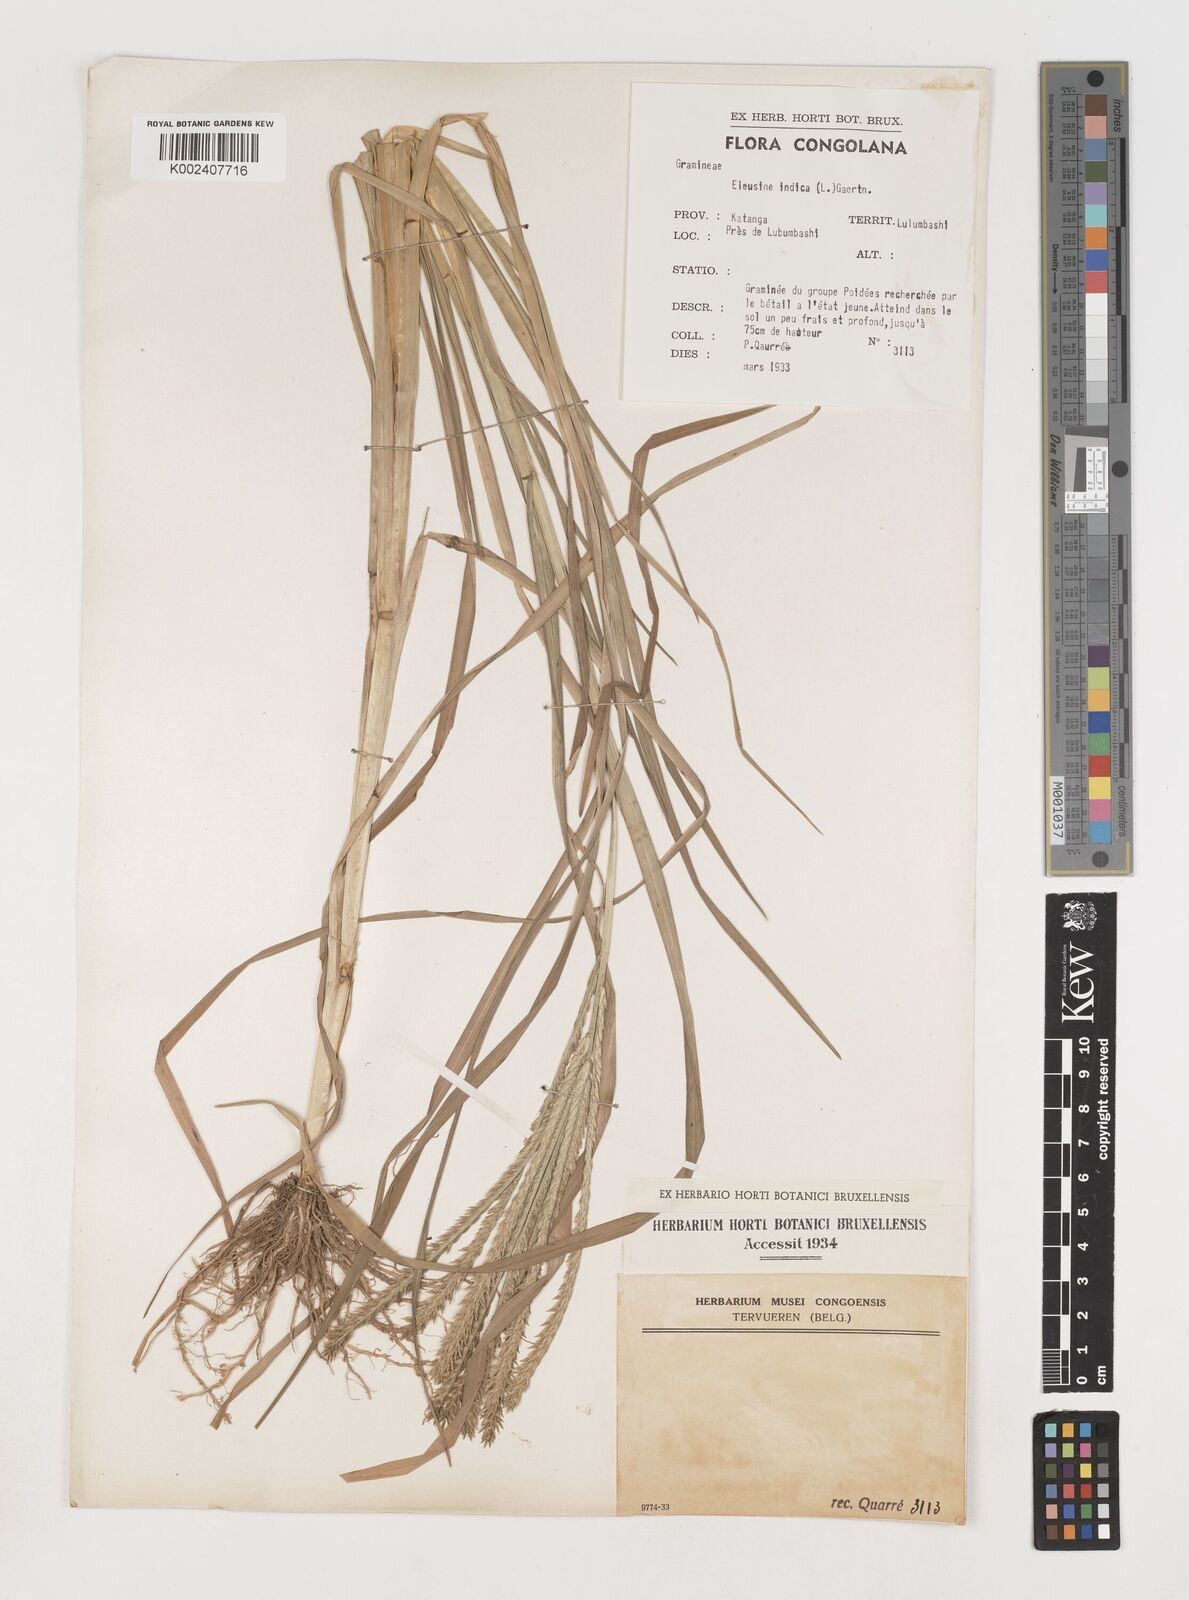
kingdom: Plantae
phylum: Tracheophyta
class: Liliopsida
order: Poales
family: Poaceae
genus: Eleusine
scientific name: Eleusine indica
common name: Yard-grass
